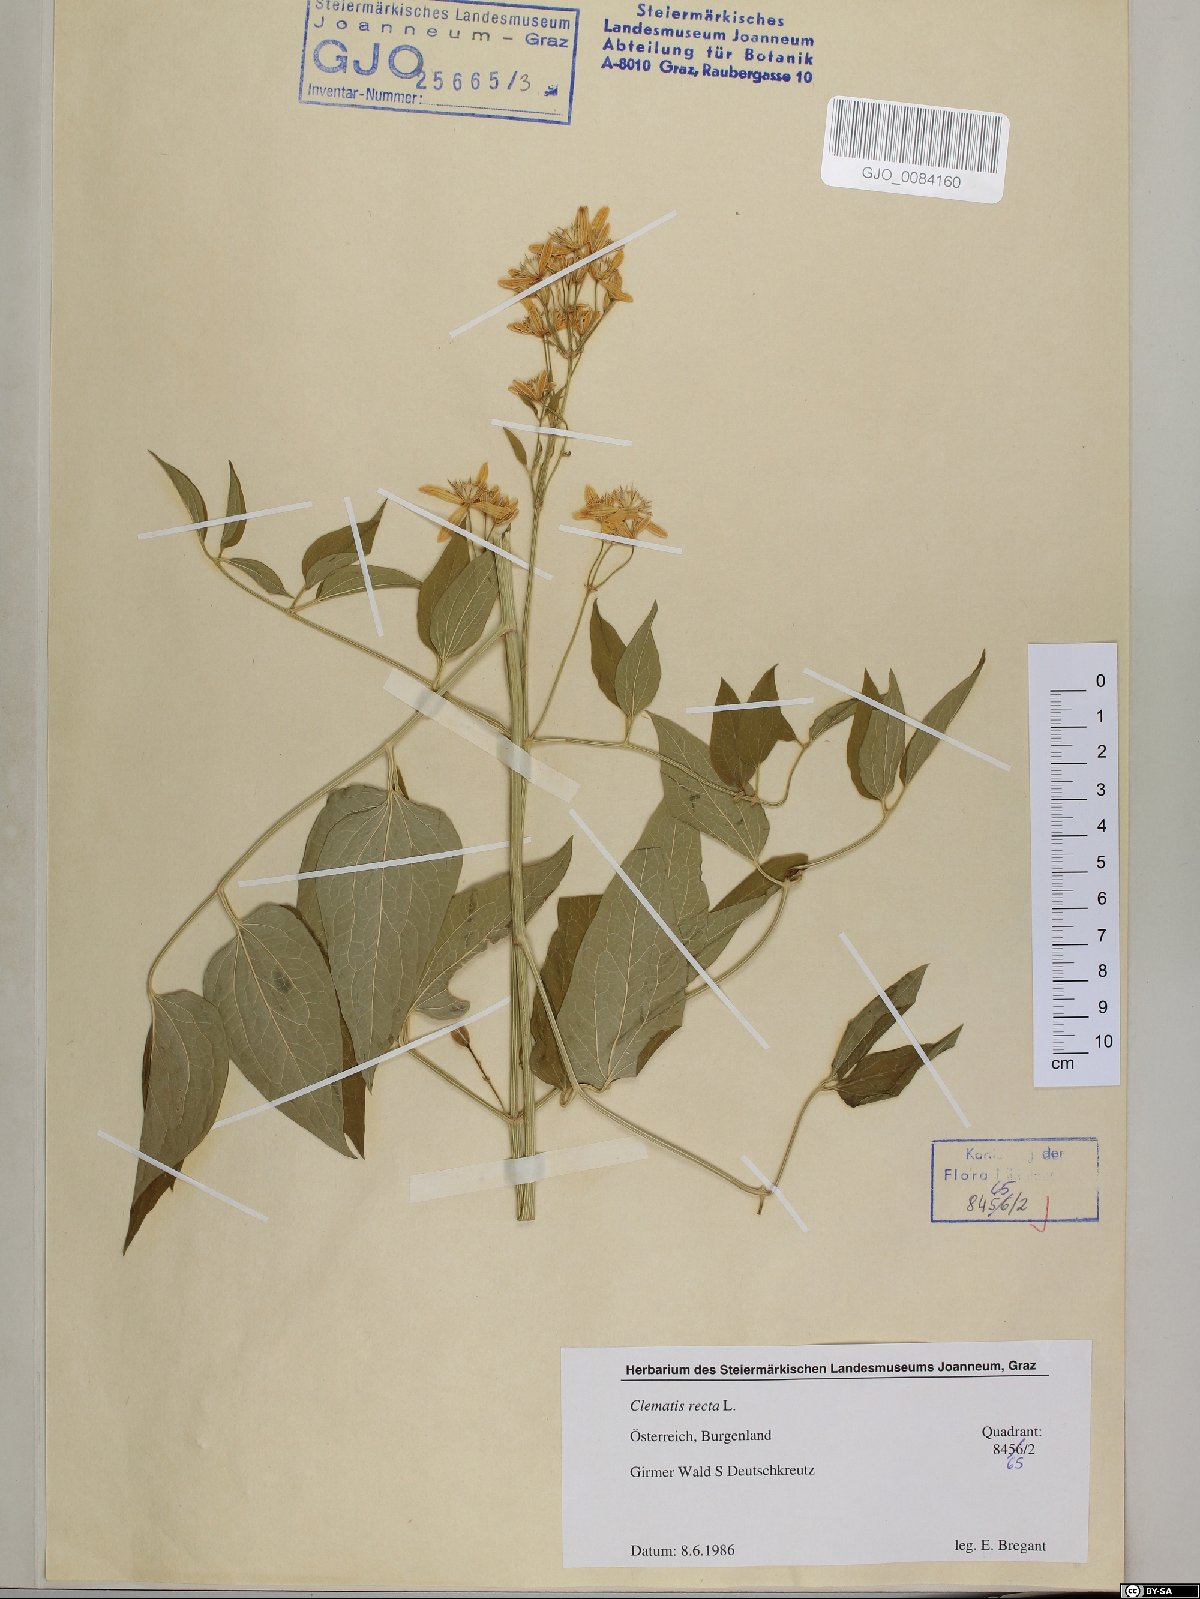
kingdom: Plantae
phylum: Tracheophyta
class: Magnoliopsida
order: Ranunculales
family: Ranunculaceae
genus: Clematis
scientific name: Clematis recta
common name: Ground clematis
